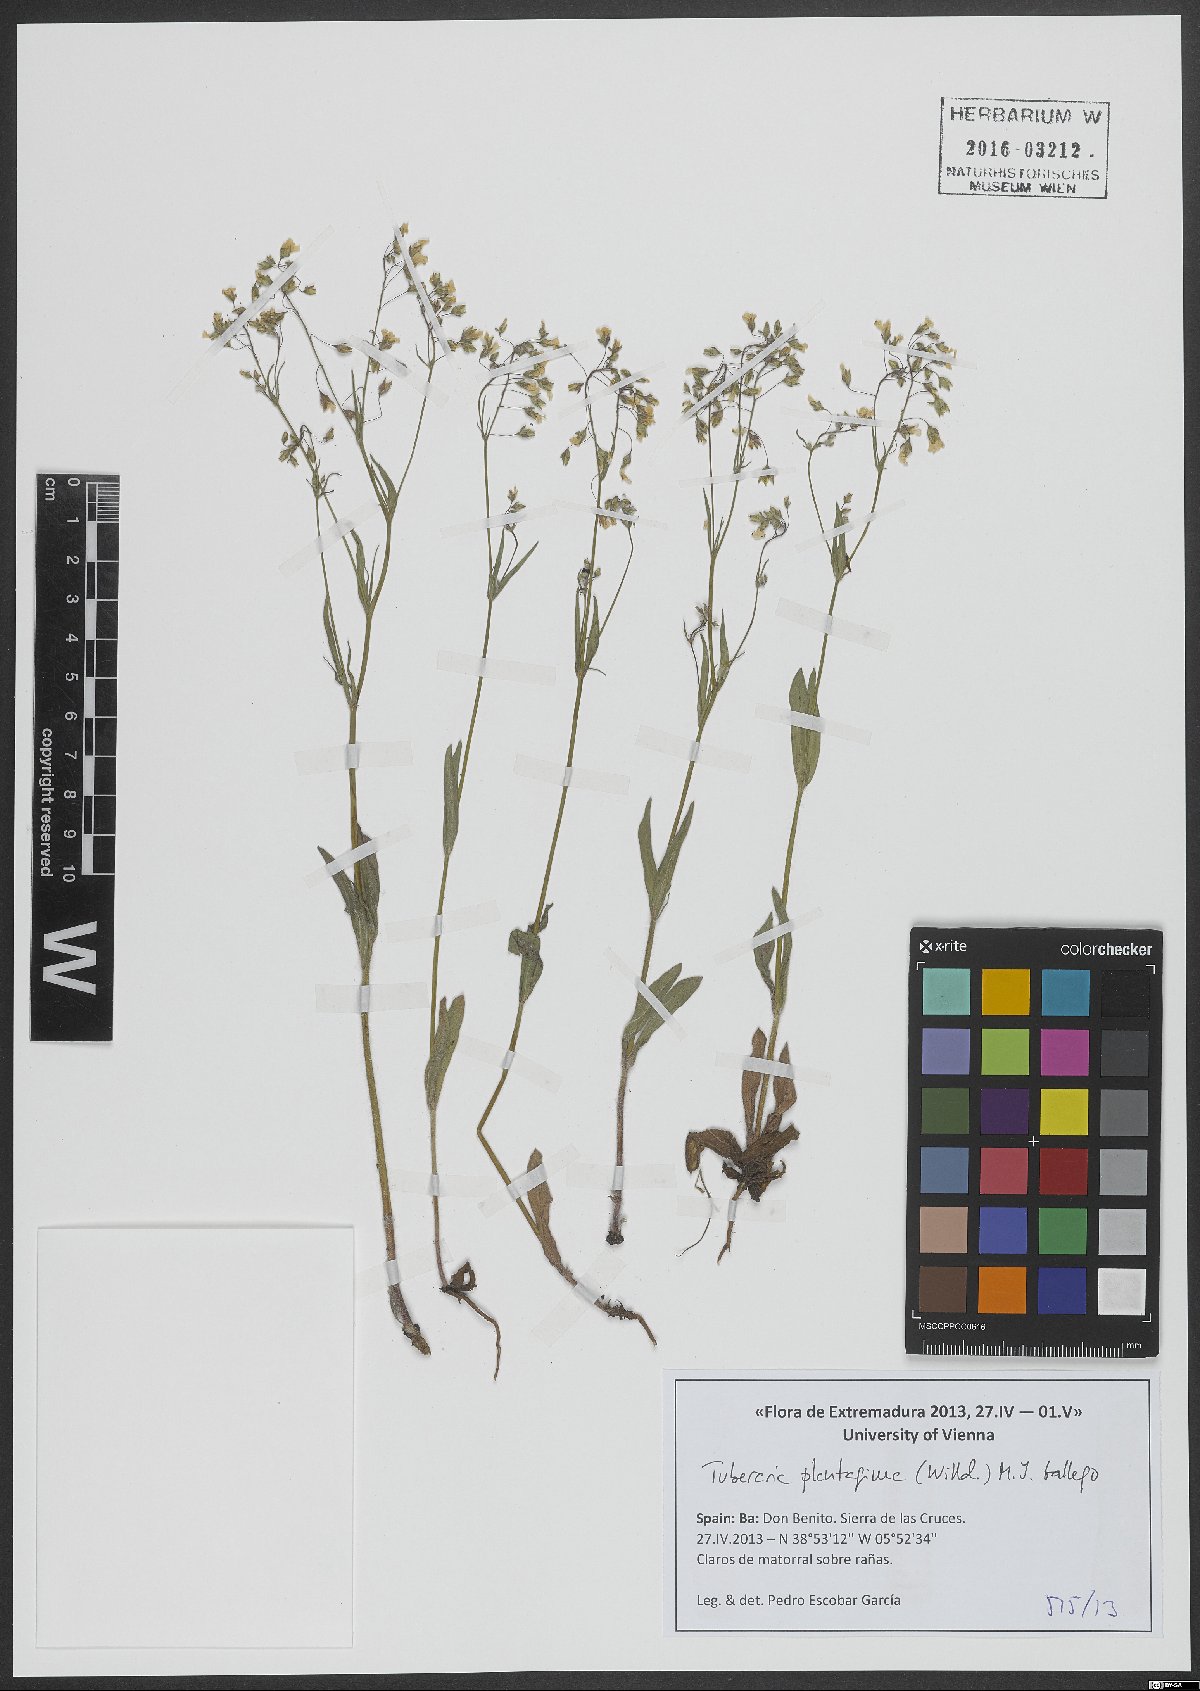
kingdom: Plantae
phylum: Tracheophyta
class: Magnoliopsida
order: Malvales
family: Cistaceae
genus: Tuberaria
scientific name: Tuberaria inconspicua
